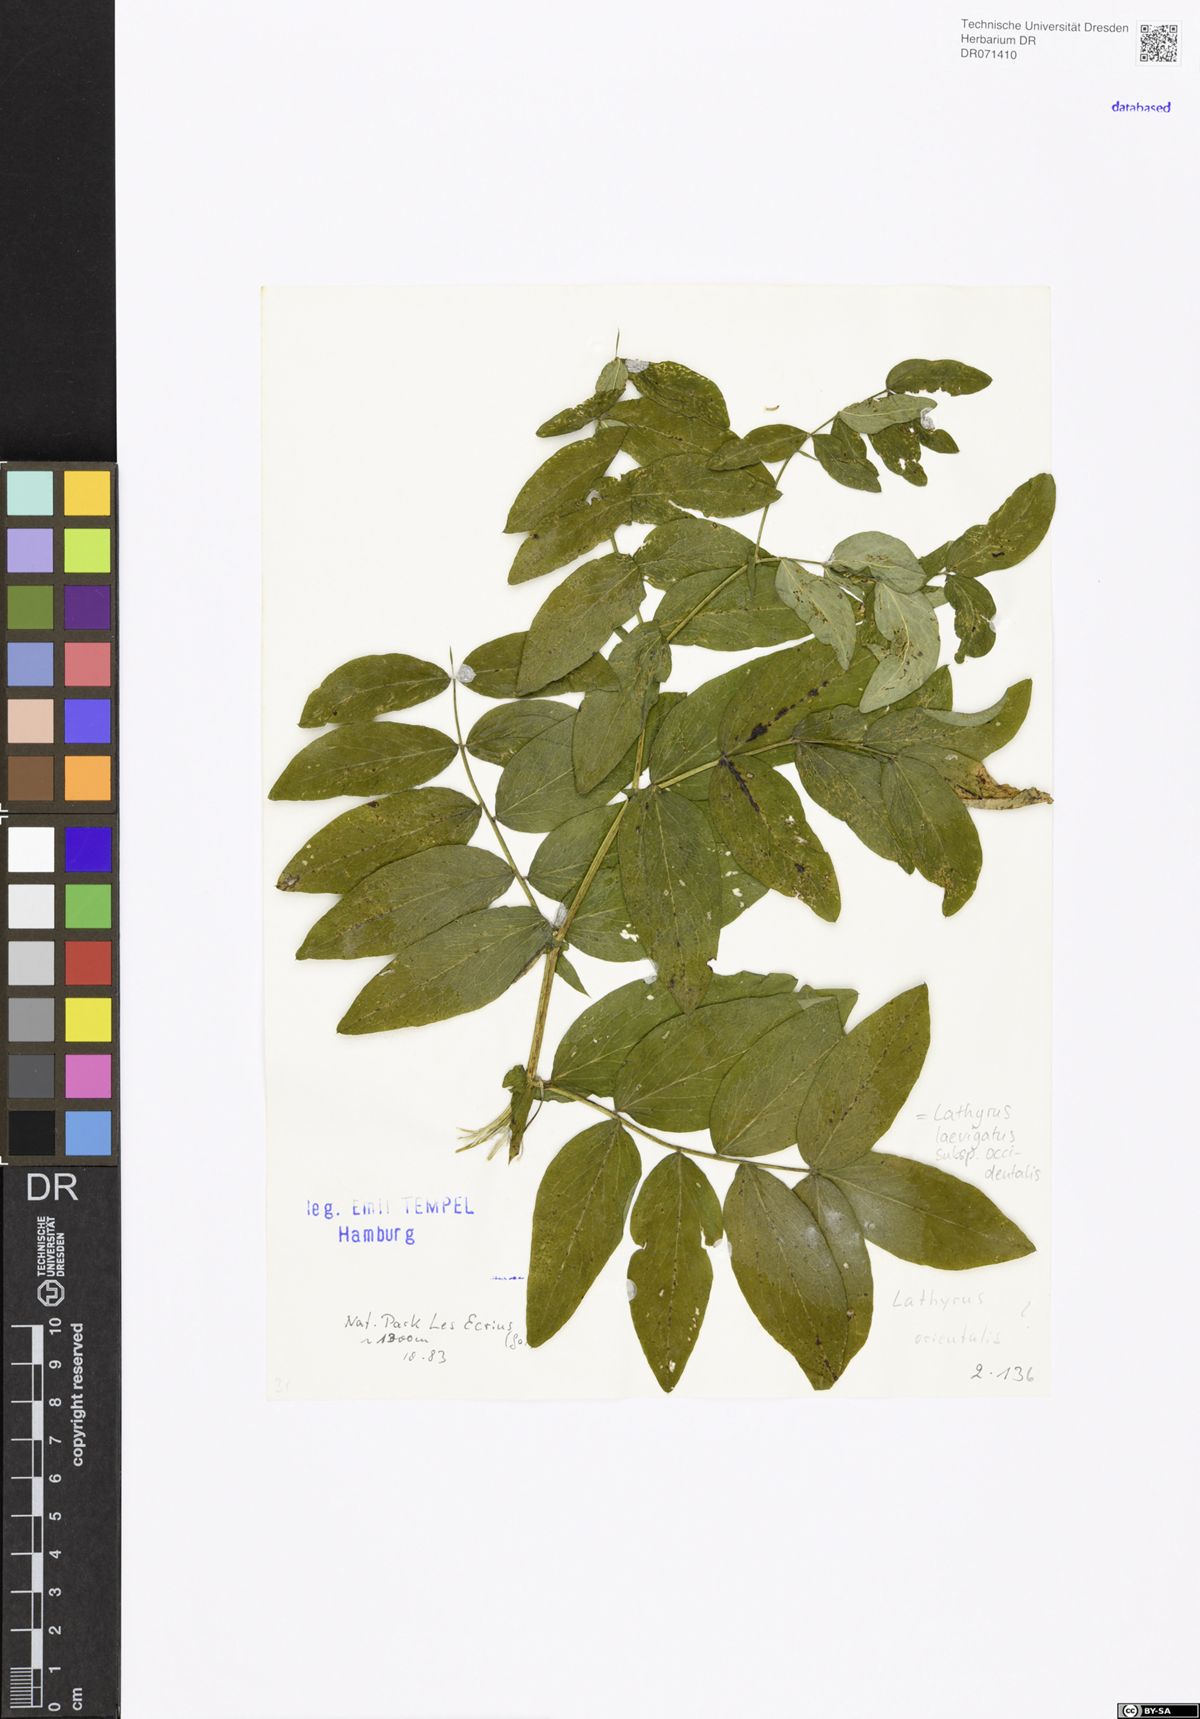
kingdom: Plantae
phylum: Tracheophyta
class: Magnoliopsida
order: Fabales
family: Fabaceae
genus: Lathyrus
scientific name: Lathyrus laevigatus
